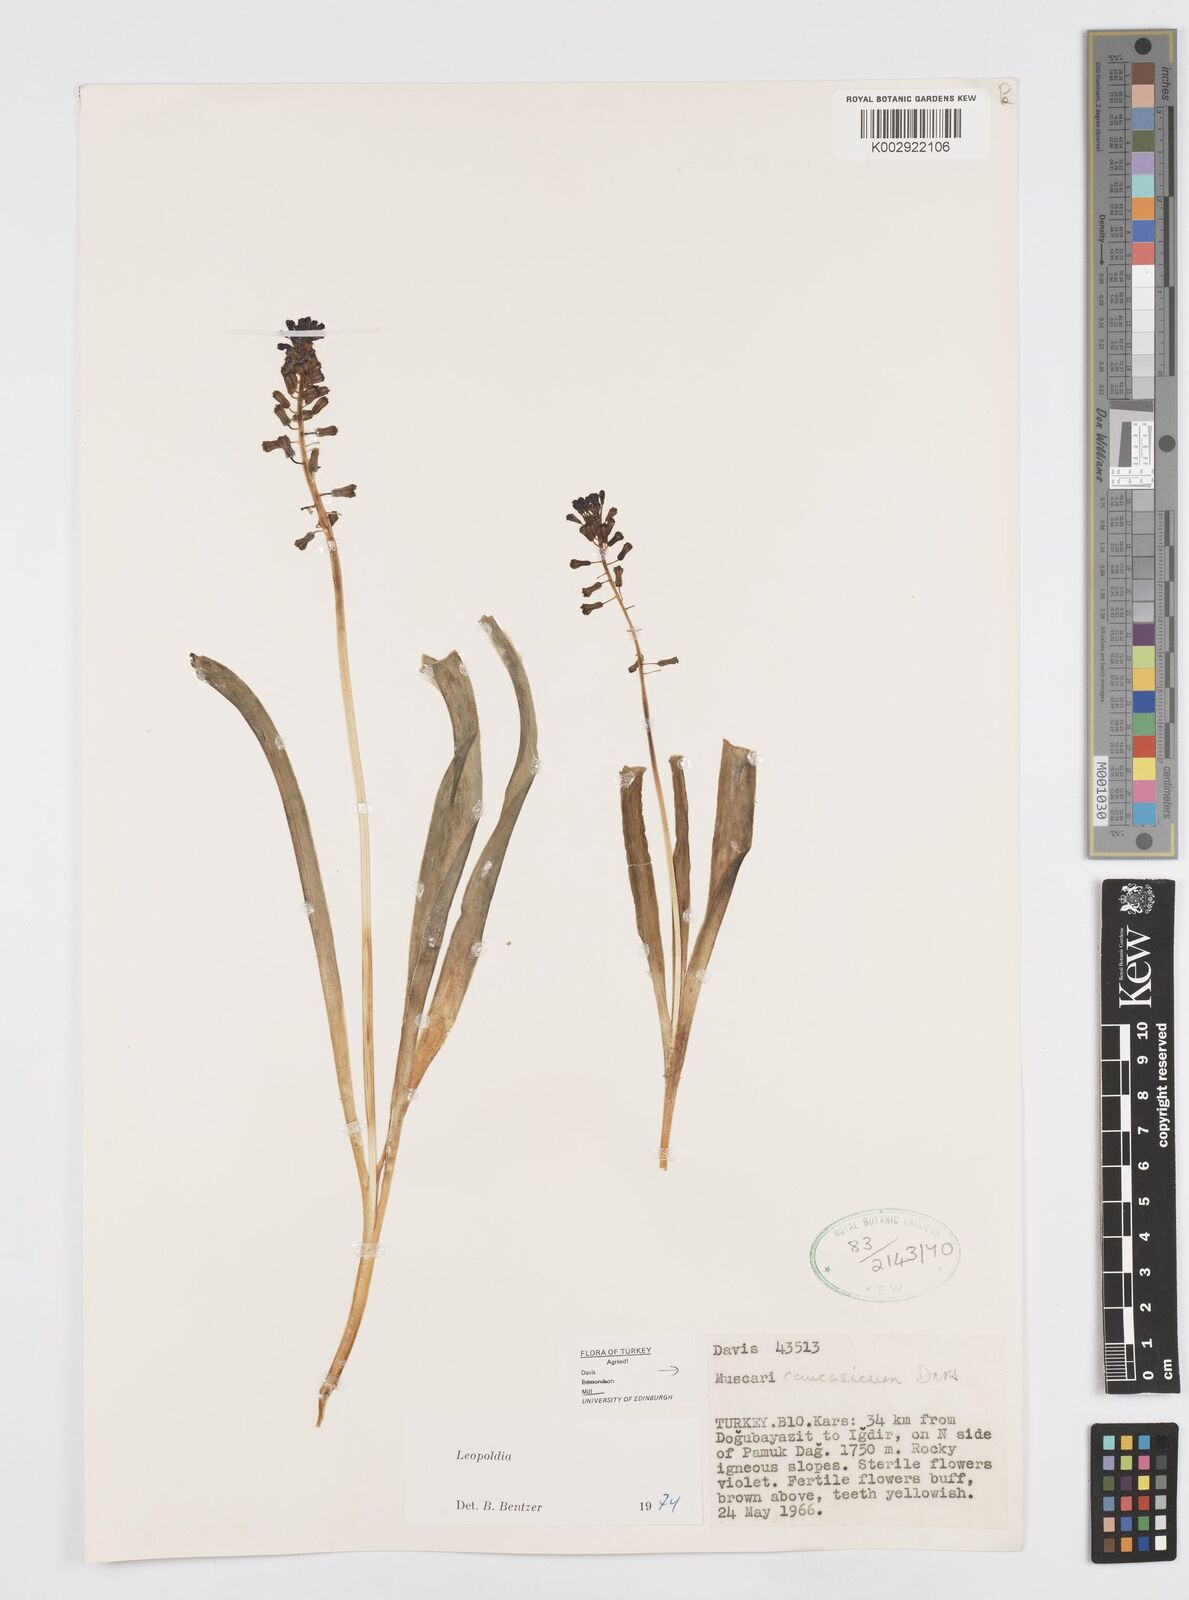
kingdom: Plantae
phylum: Tracheophyta
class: Liliopsida
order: Asparagales
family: Asparagaceae
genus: Muscari
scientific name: Muscari caucasicum
